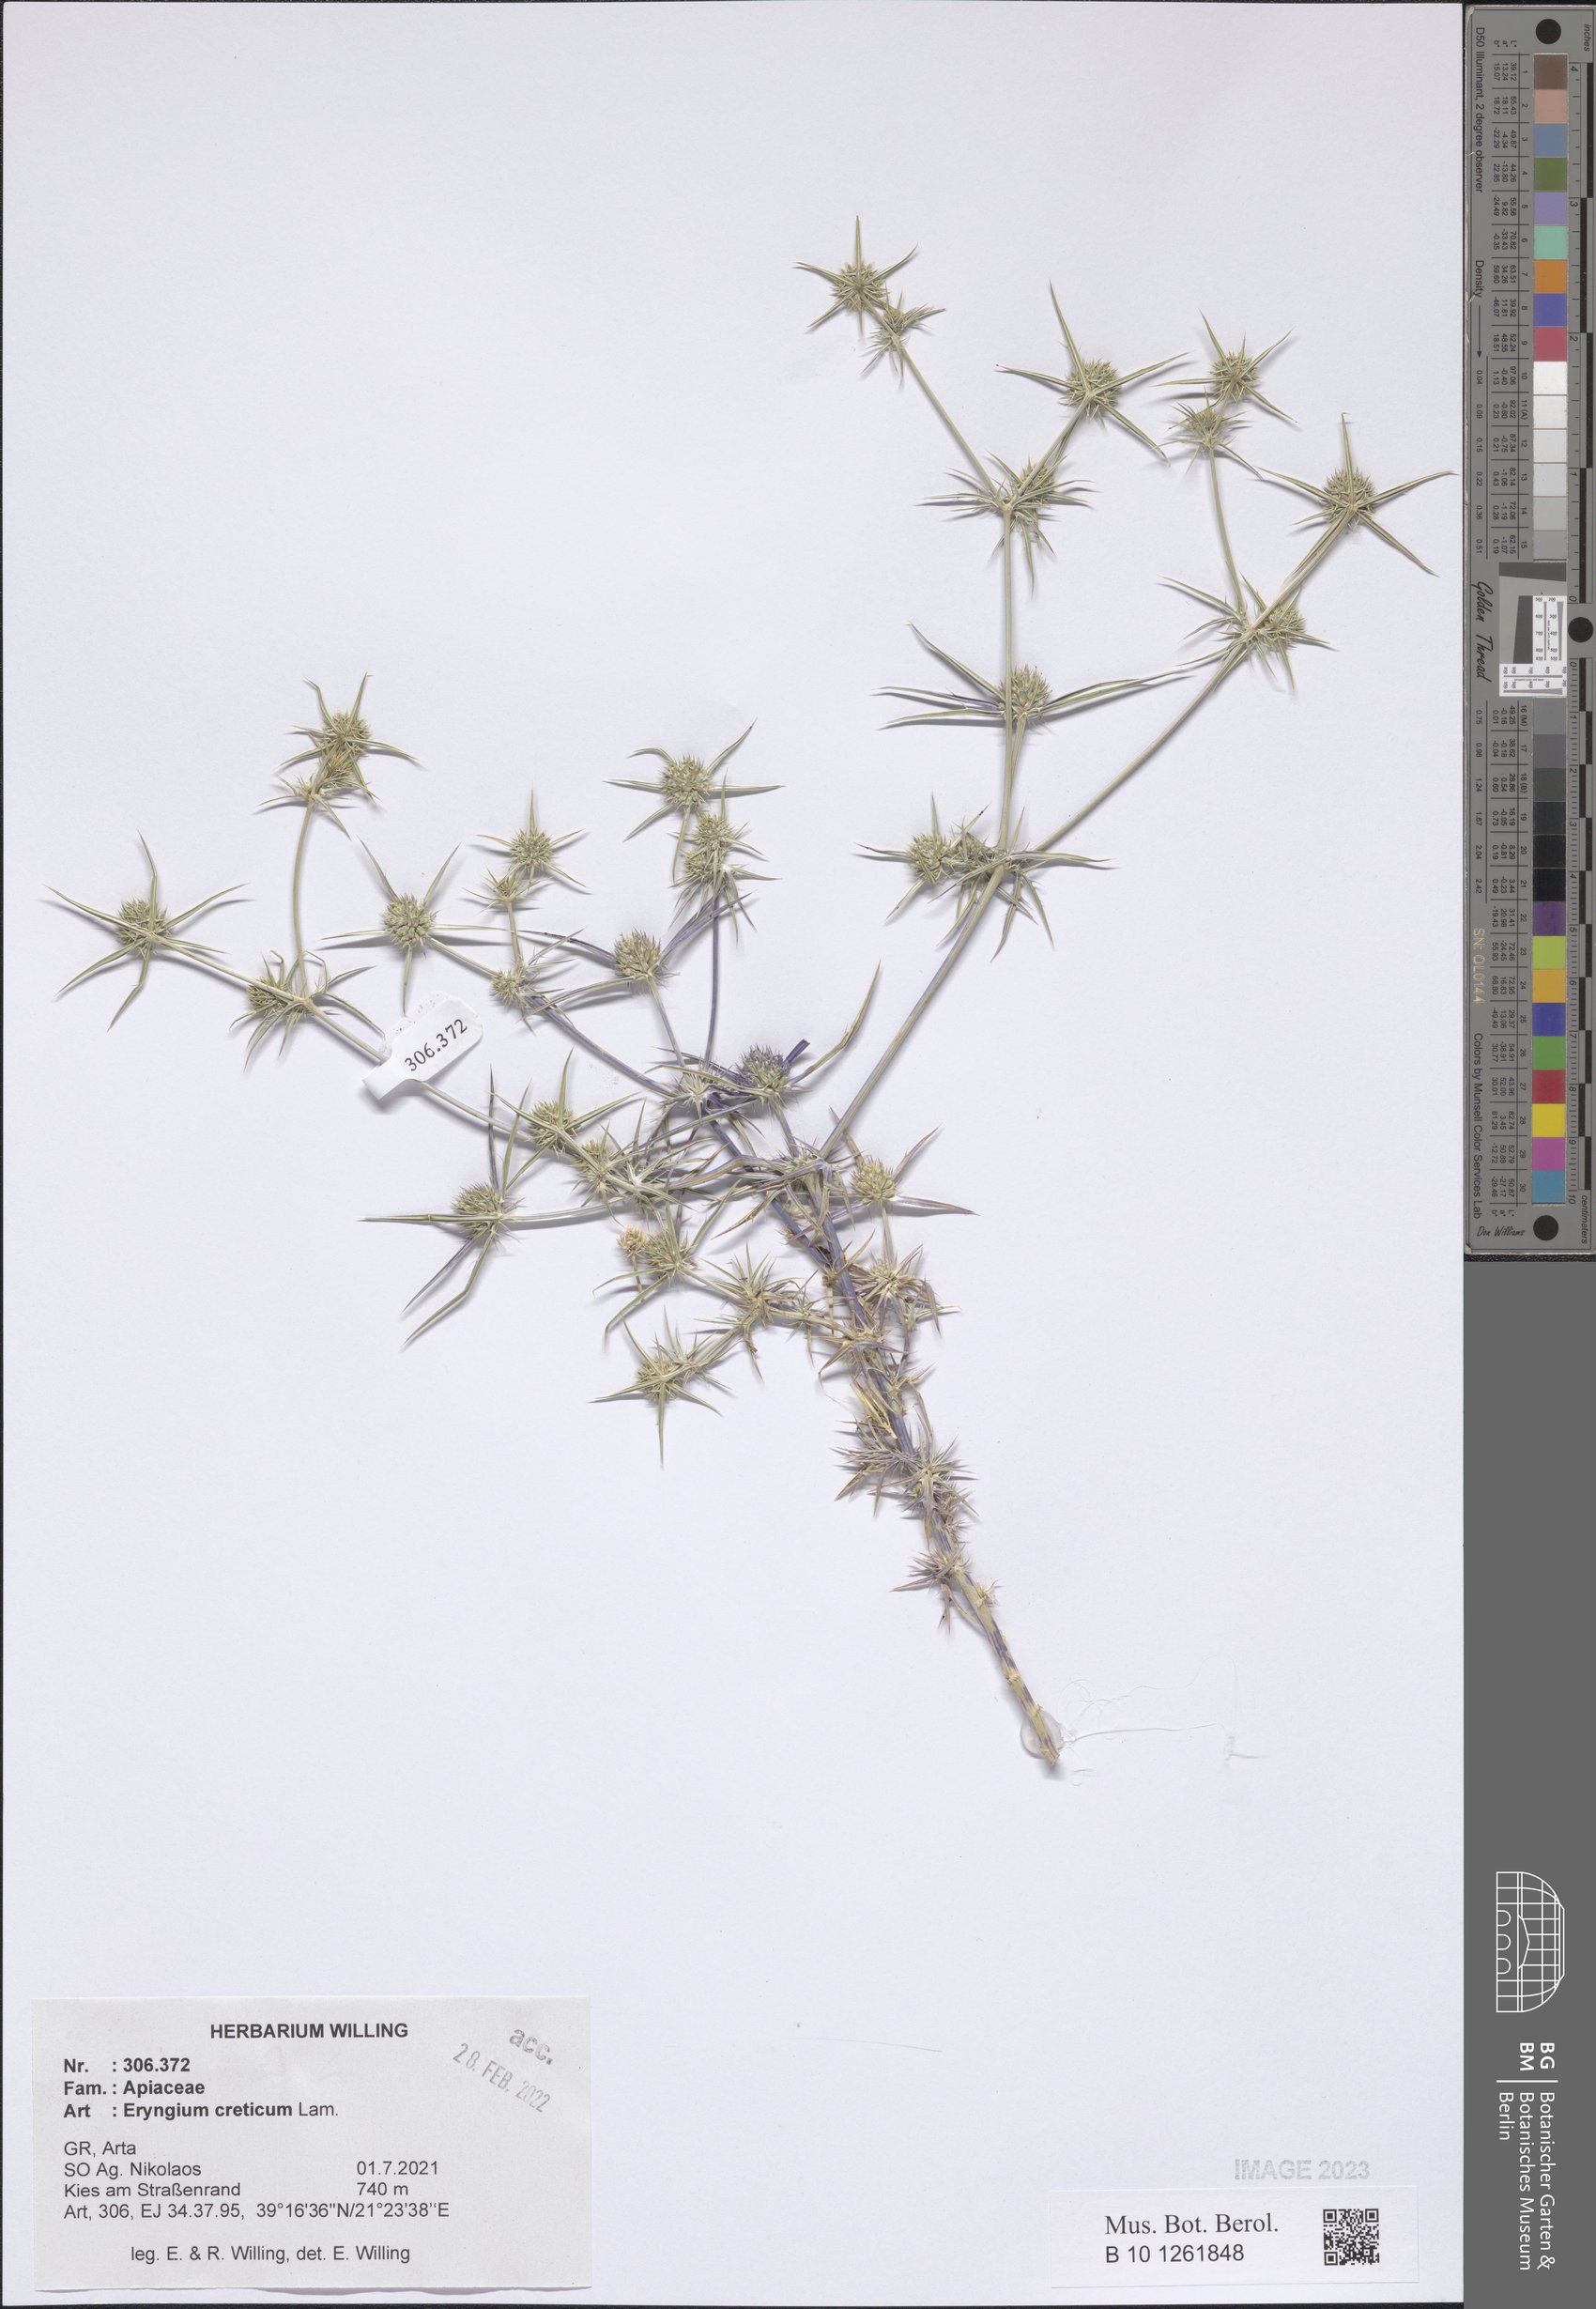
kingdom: Plantae
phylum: Tracheophyta
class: Magnoliopsida
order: Apiales
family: Apiaceae
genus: Eryngium
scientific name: Eryngium creticum
